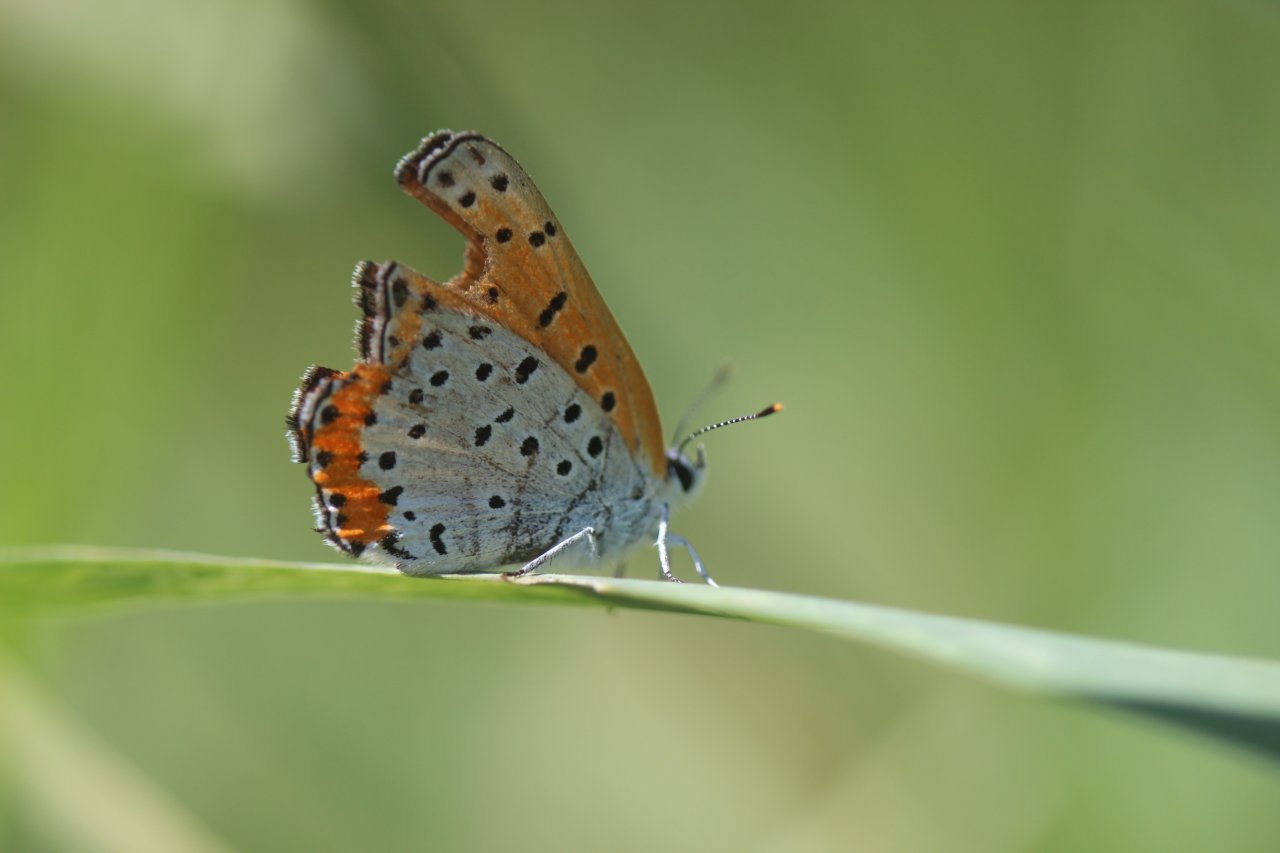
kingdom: Animalia
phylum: Arthropoda
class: Insecta
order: Lepidoptera
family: Lycaenidae
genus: Lycaena
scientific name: Lycaena phlaeas
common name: American Copper
